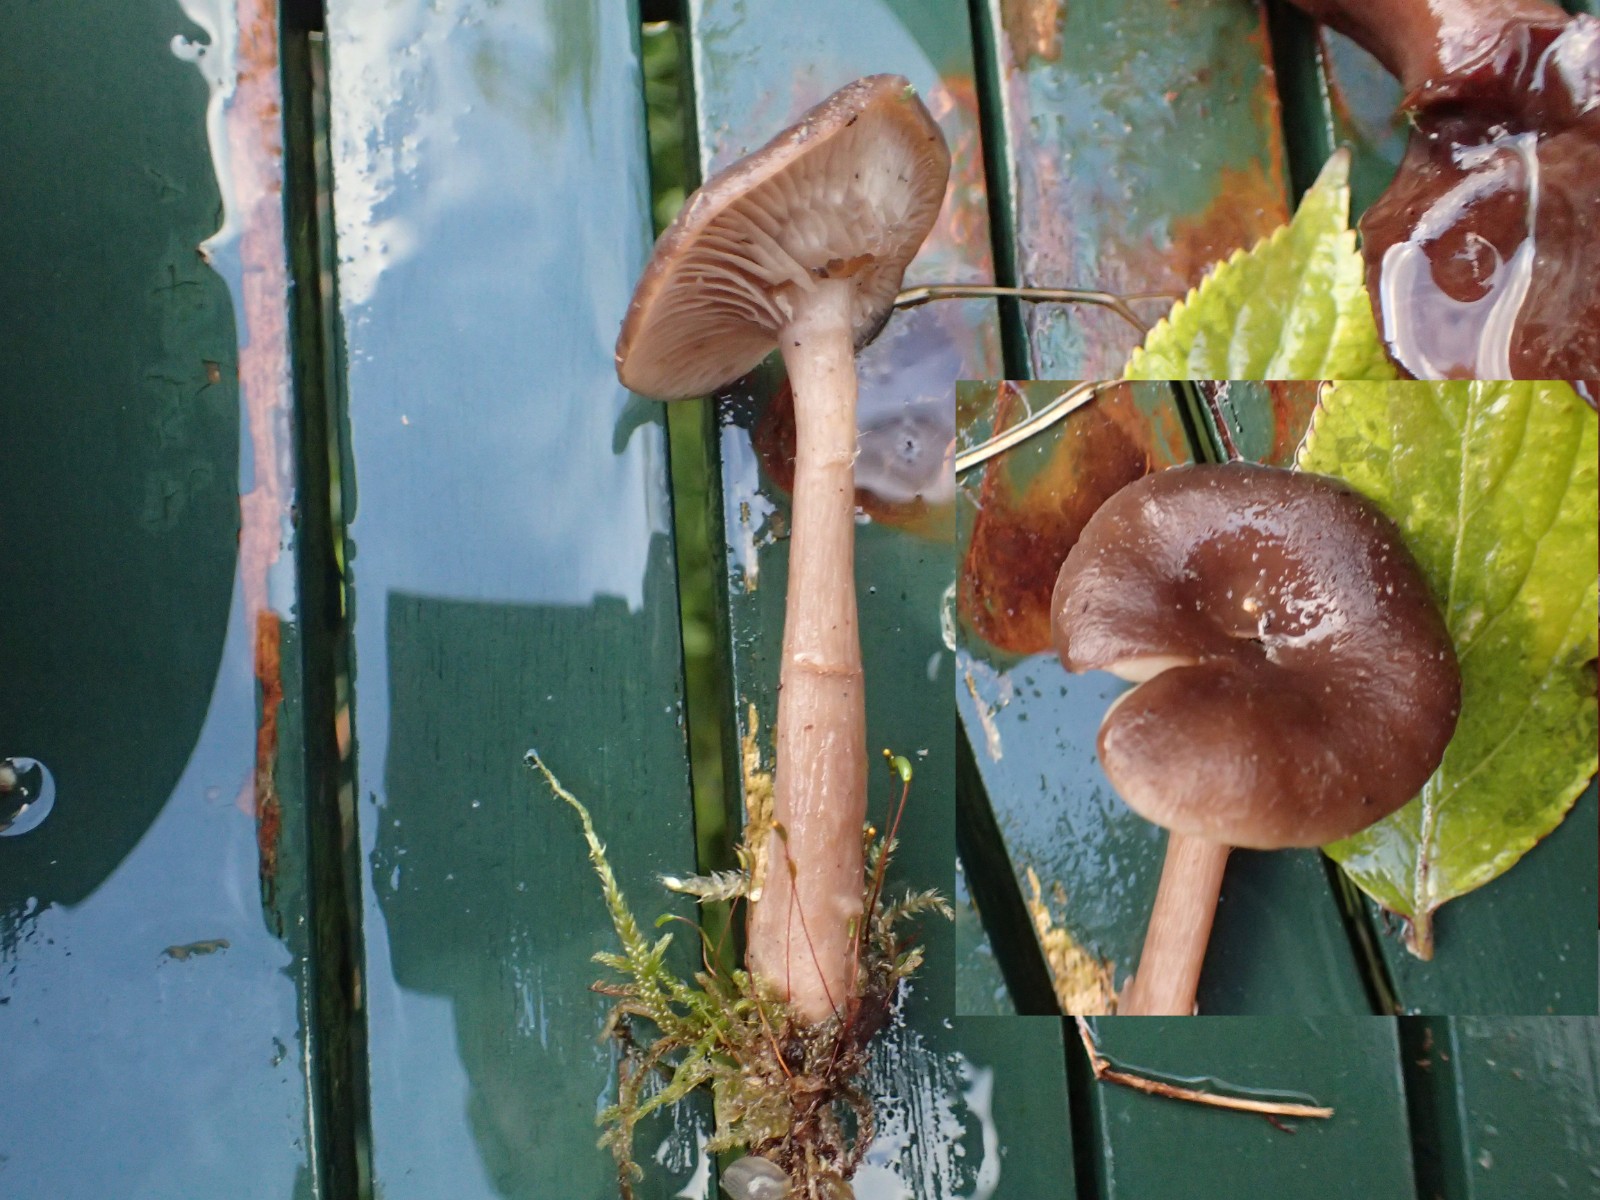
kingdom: Fungi
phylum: Basidiomycota
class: Agaricomycetes
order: Agaricales
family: Pseudoclitocybaceae
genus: Pseudoclitocybe
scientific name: Pseudoclitocybe cyathiformis
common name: almindelig bægertragthat
